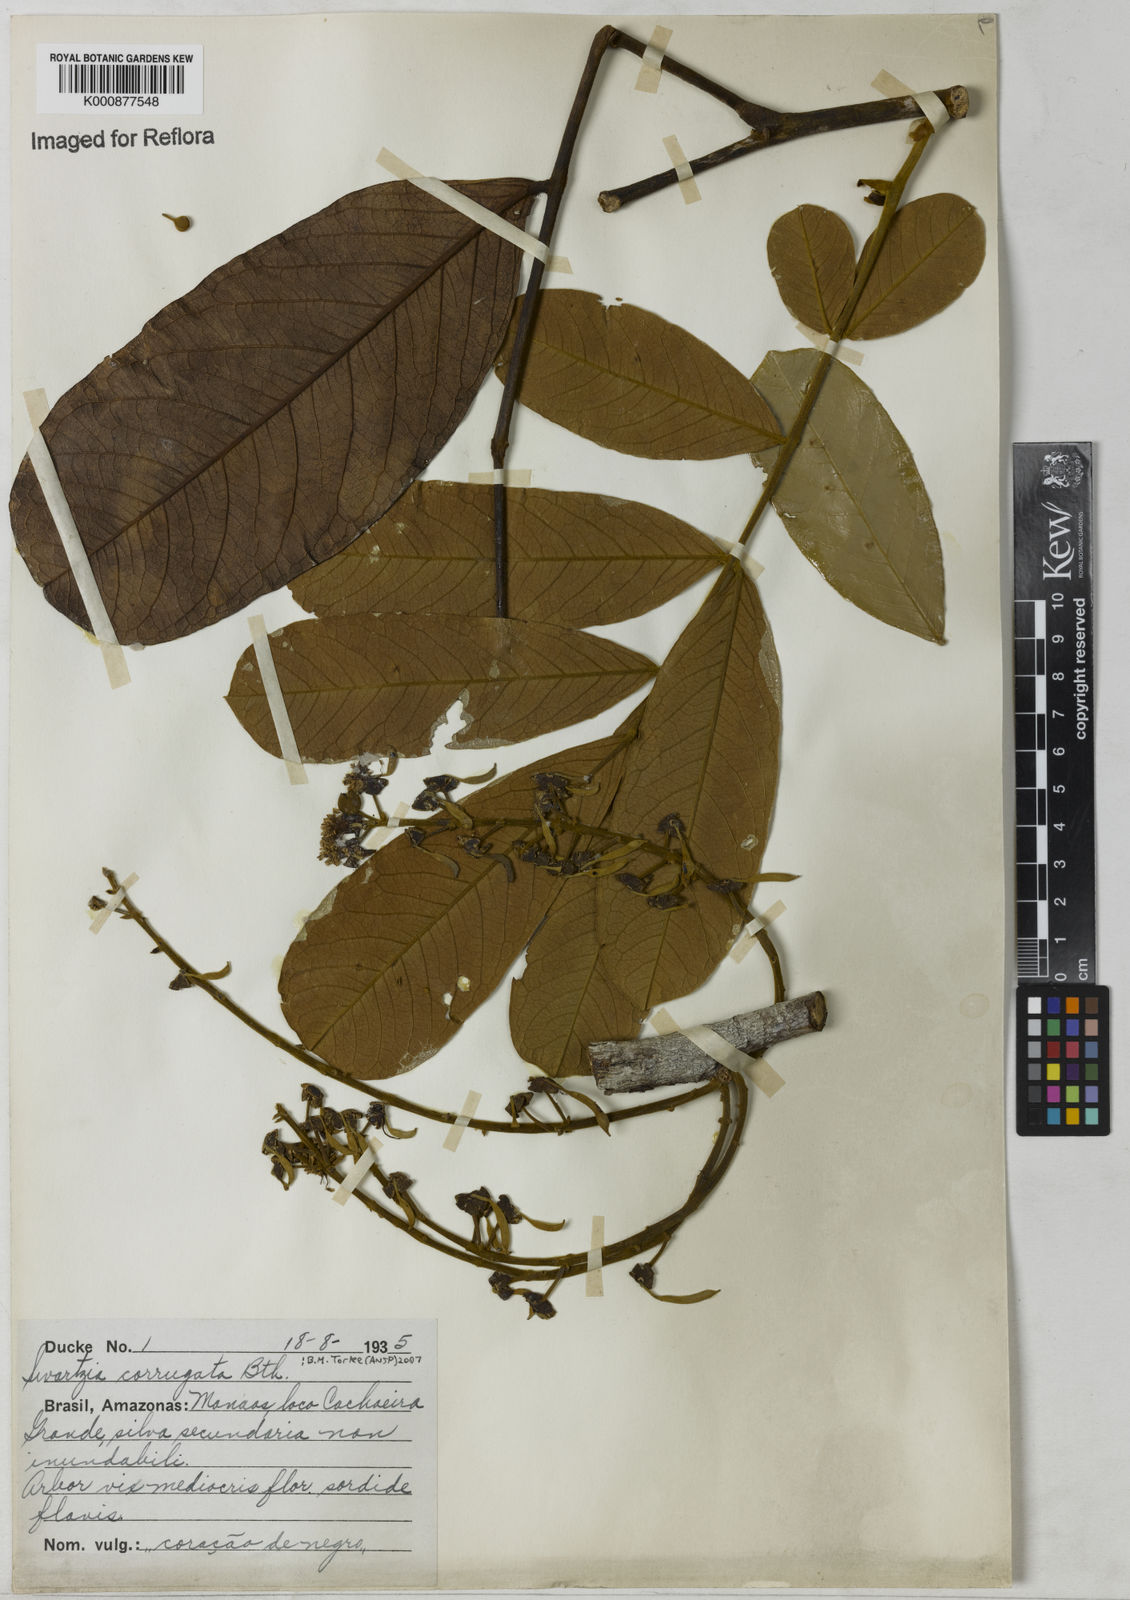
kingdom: Plantae
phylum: Tracheophyta
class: Magnoliopsida
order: Fabales
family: Fabaceae
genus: Swartzia
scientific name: Swartzia corrugata
